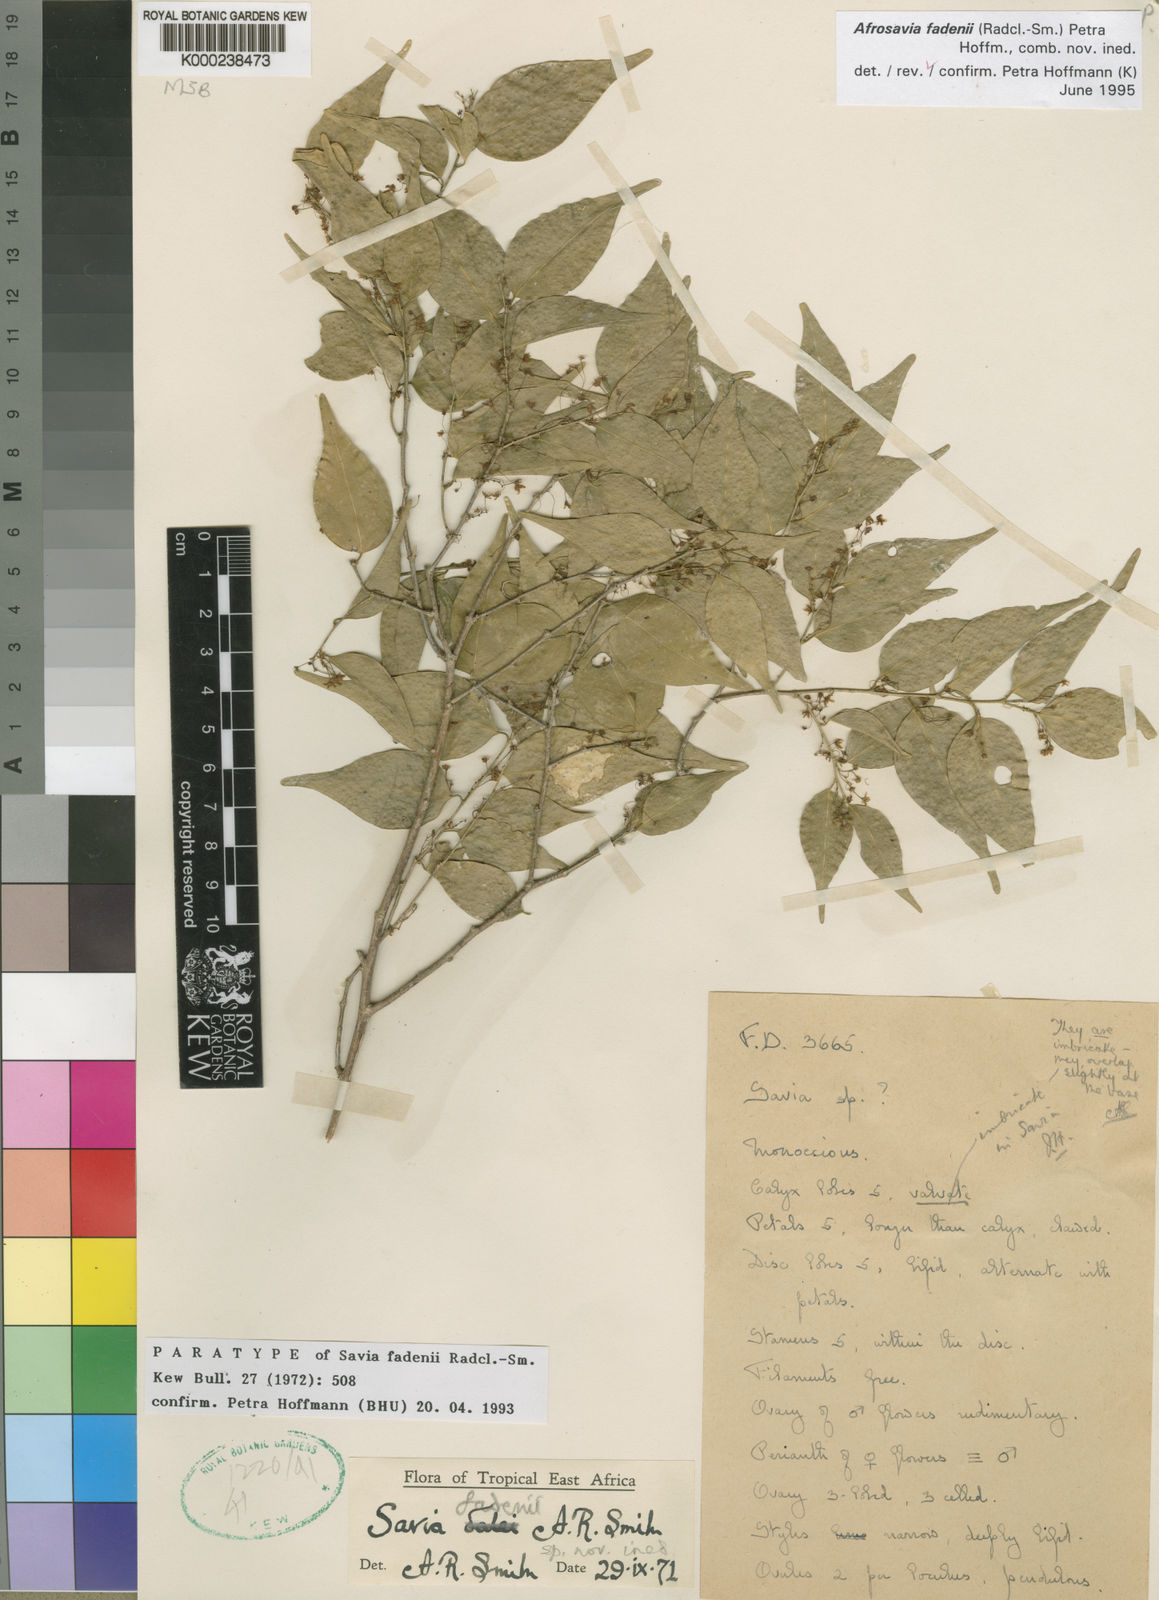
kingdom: Plantae
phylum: Tracheophyta
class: Magnoliopsida
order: Malpighiales
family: Phyllanthaceae
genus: Wielandia
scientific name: Wielandia fadenii
